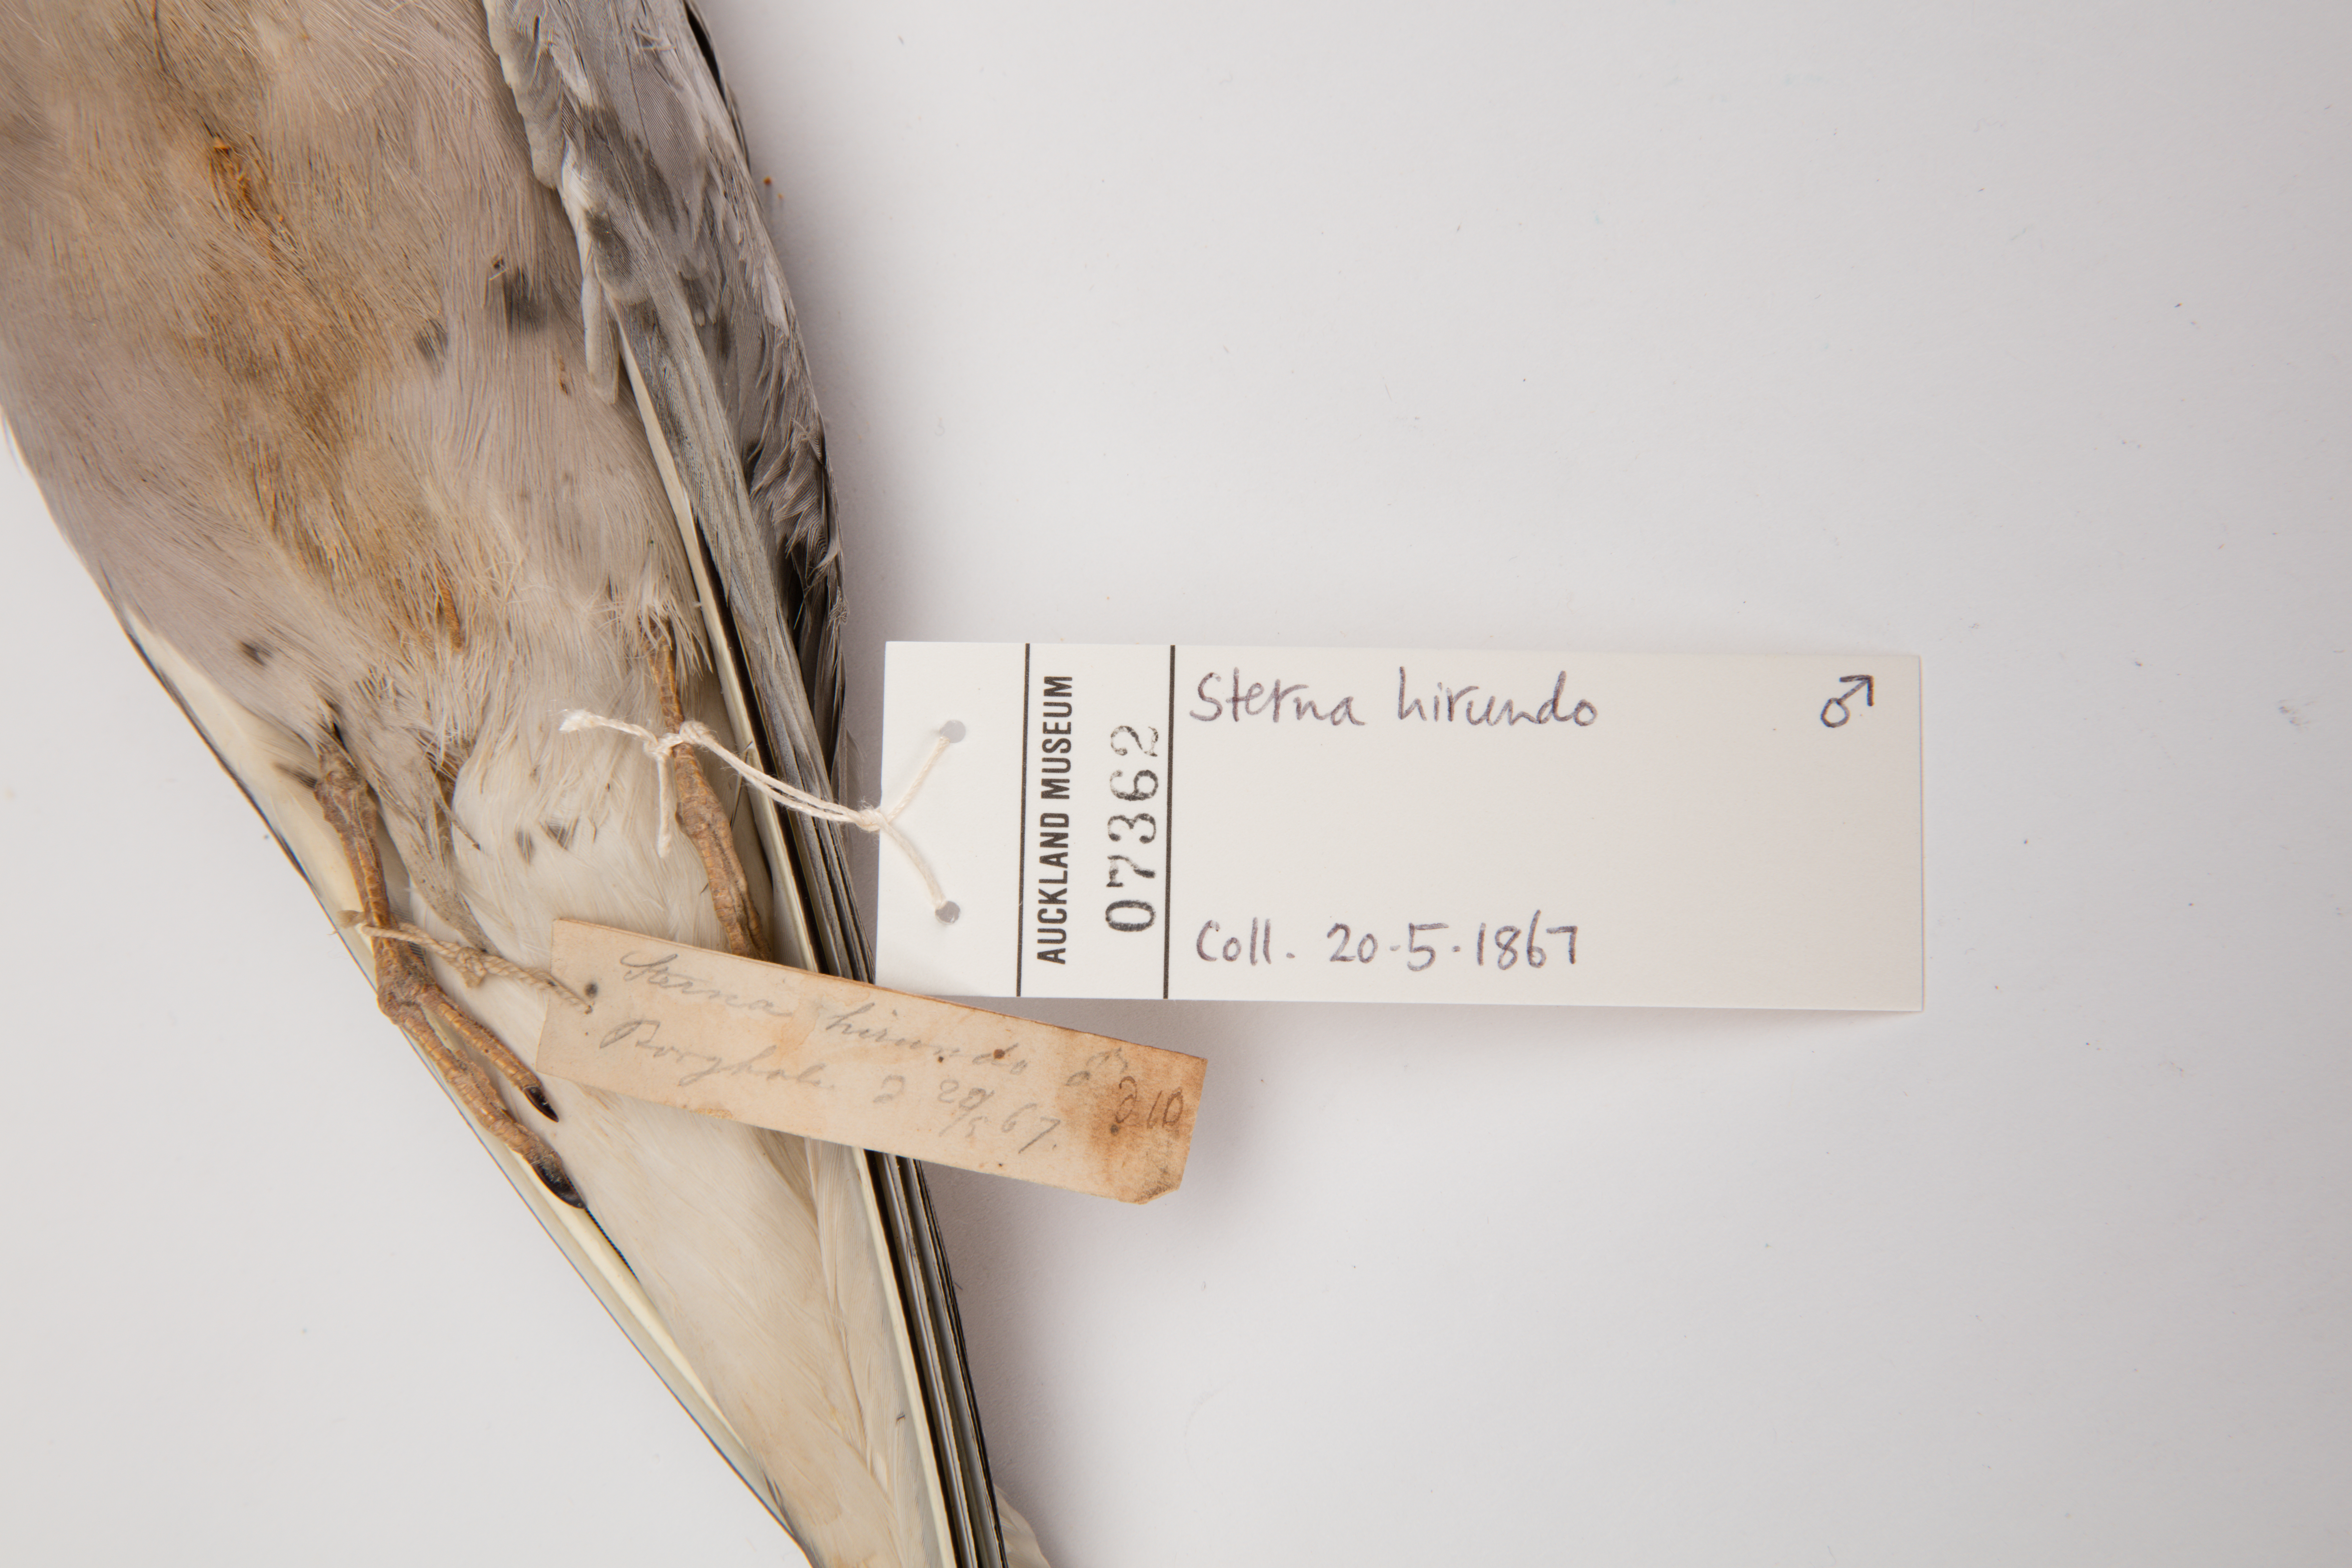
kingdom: Animalia
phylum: Chordata
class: Aves
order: Charadriiformes
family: Laridae
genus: Sterna
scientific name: Sterna hirundo
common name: Common tern
